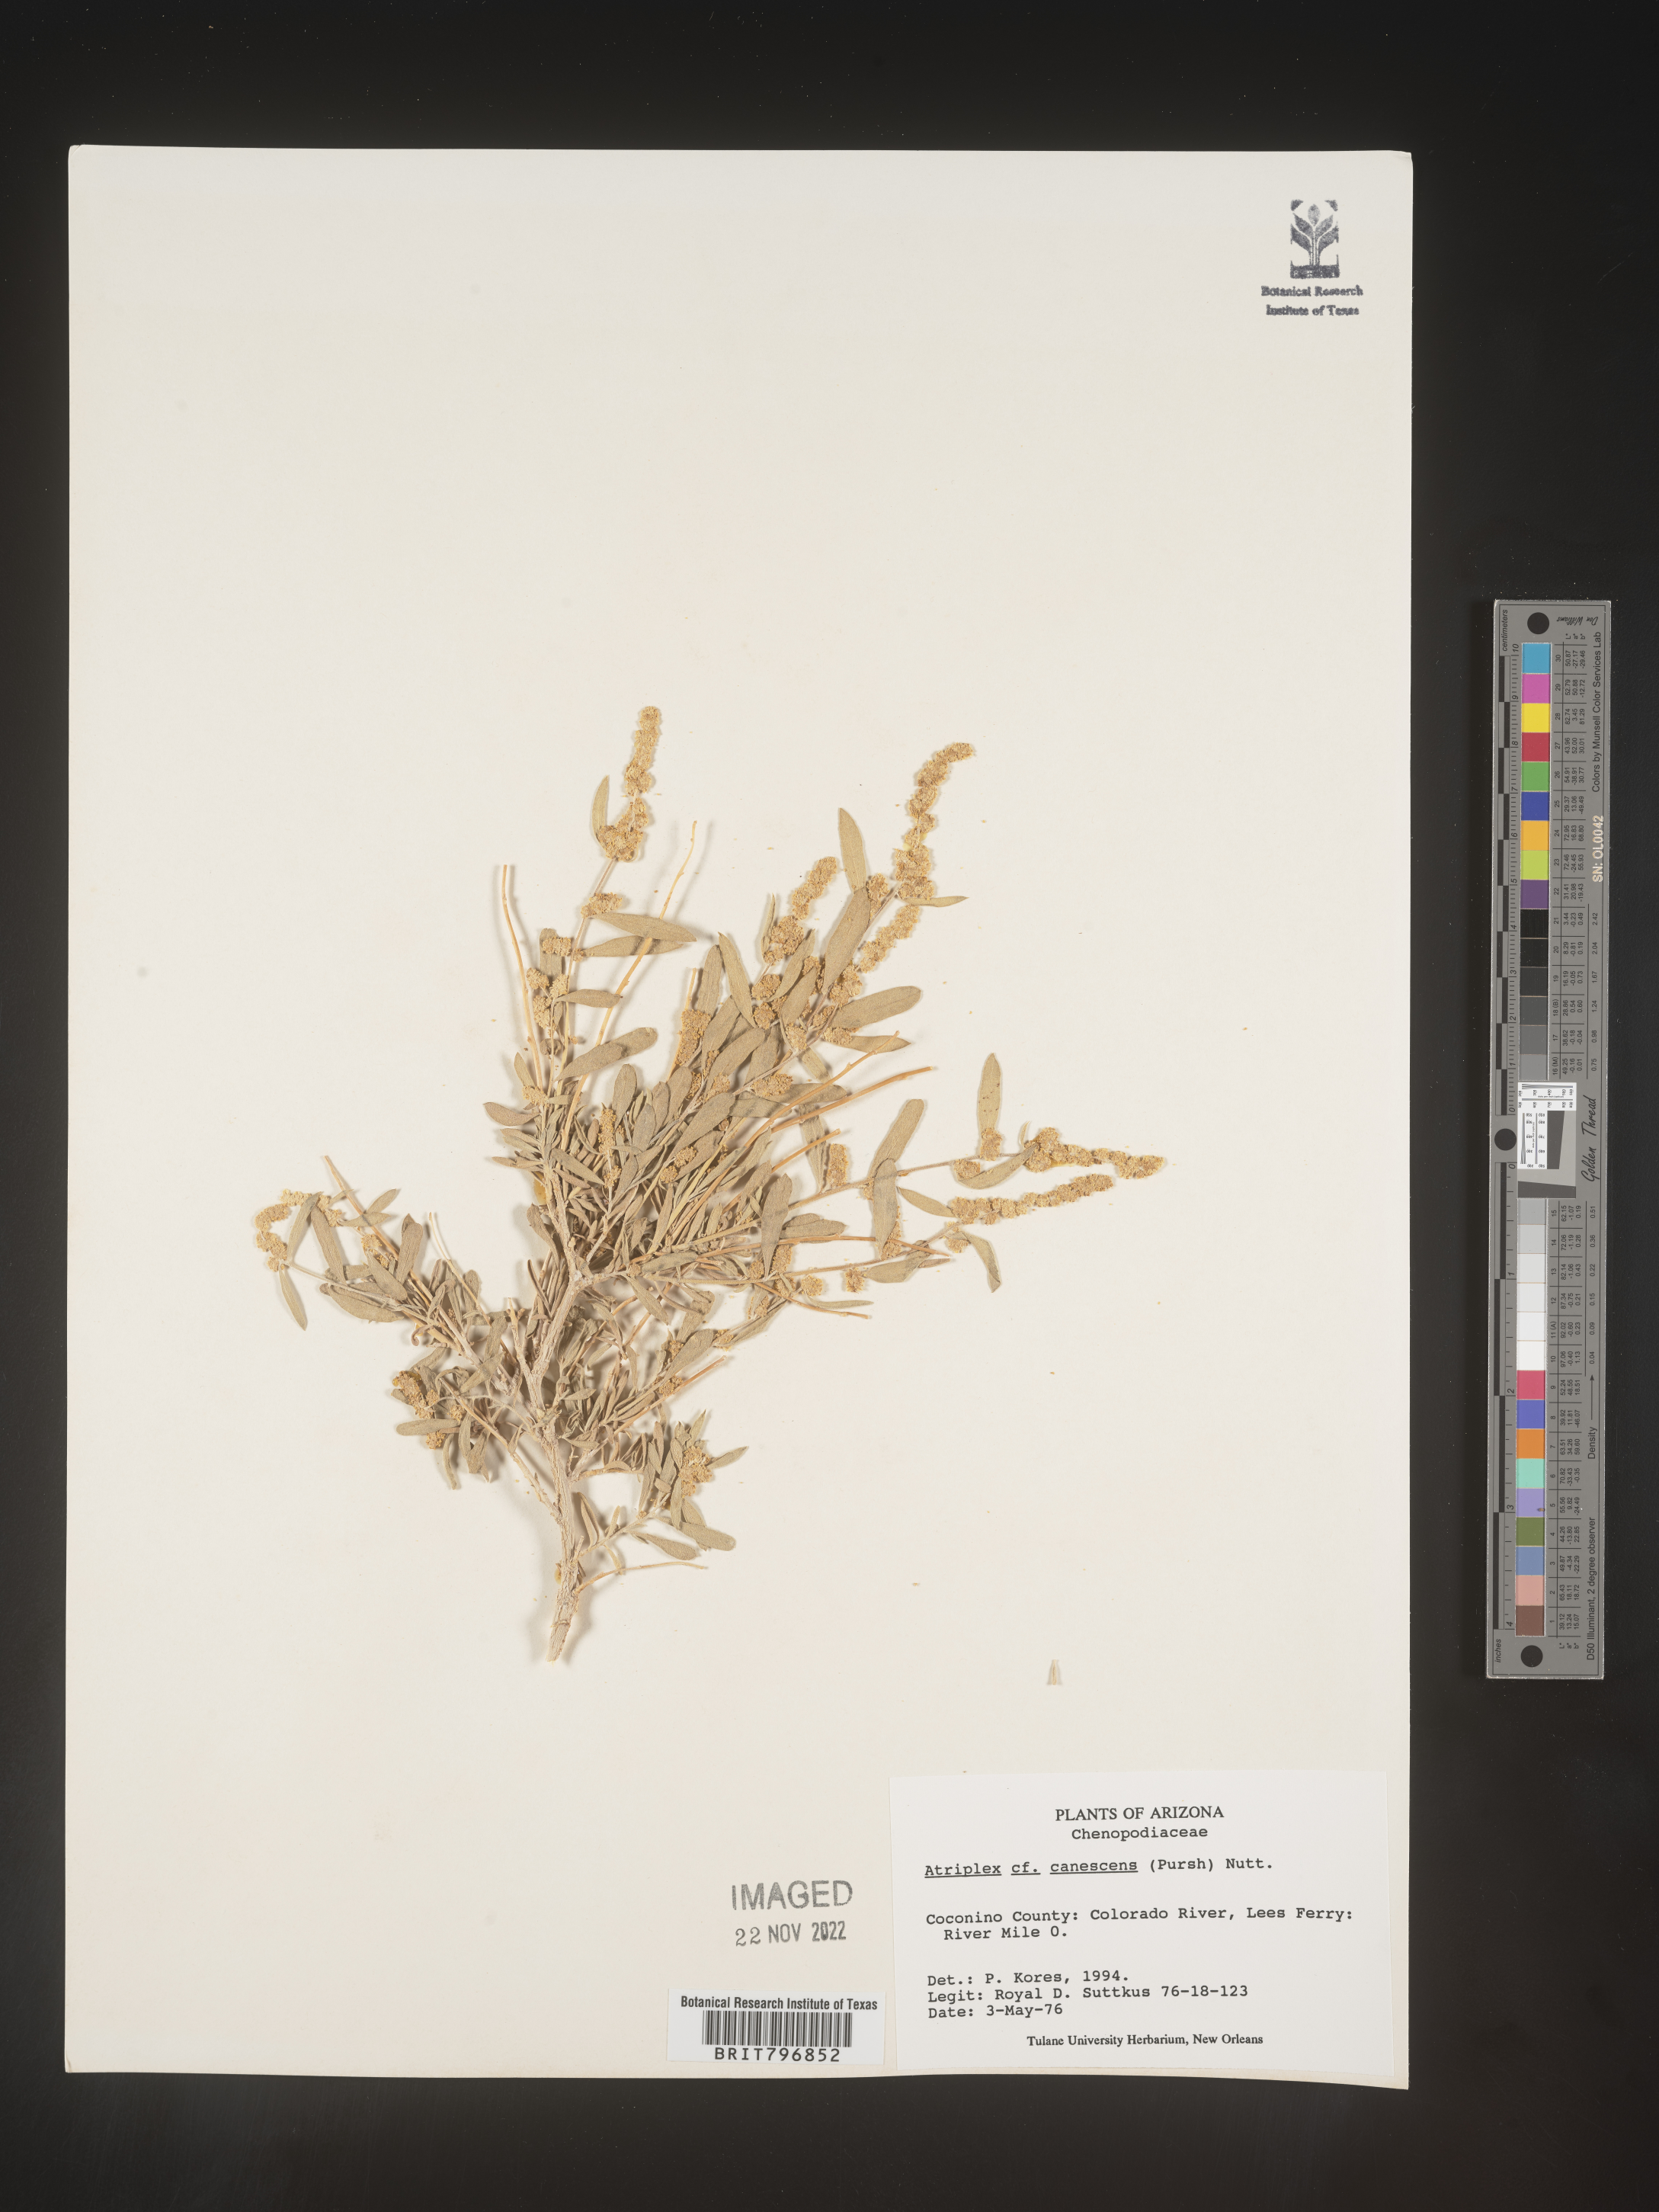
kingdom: Plantae
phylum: Tracheophyta
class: Magnoliopsida
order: Caryophyllales
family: Amaranthaceae
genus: Atriplex
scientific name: Atriplex canescens
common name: Four-wing saltbush
